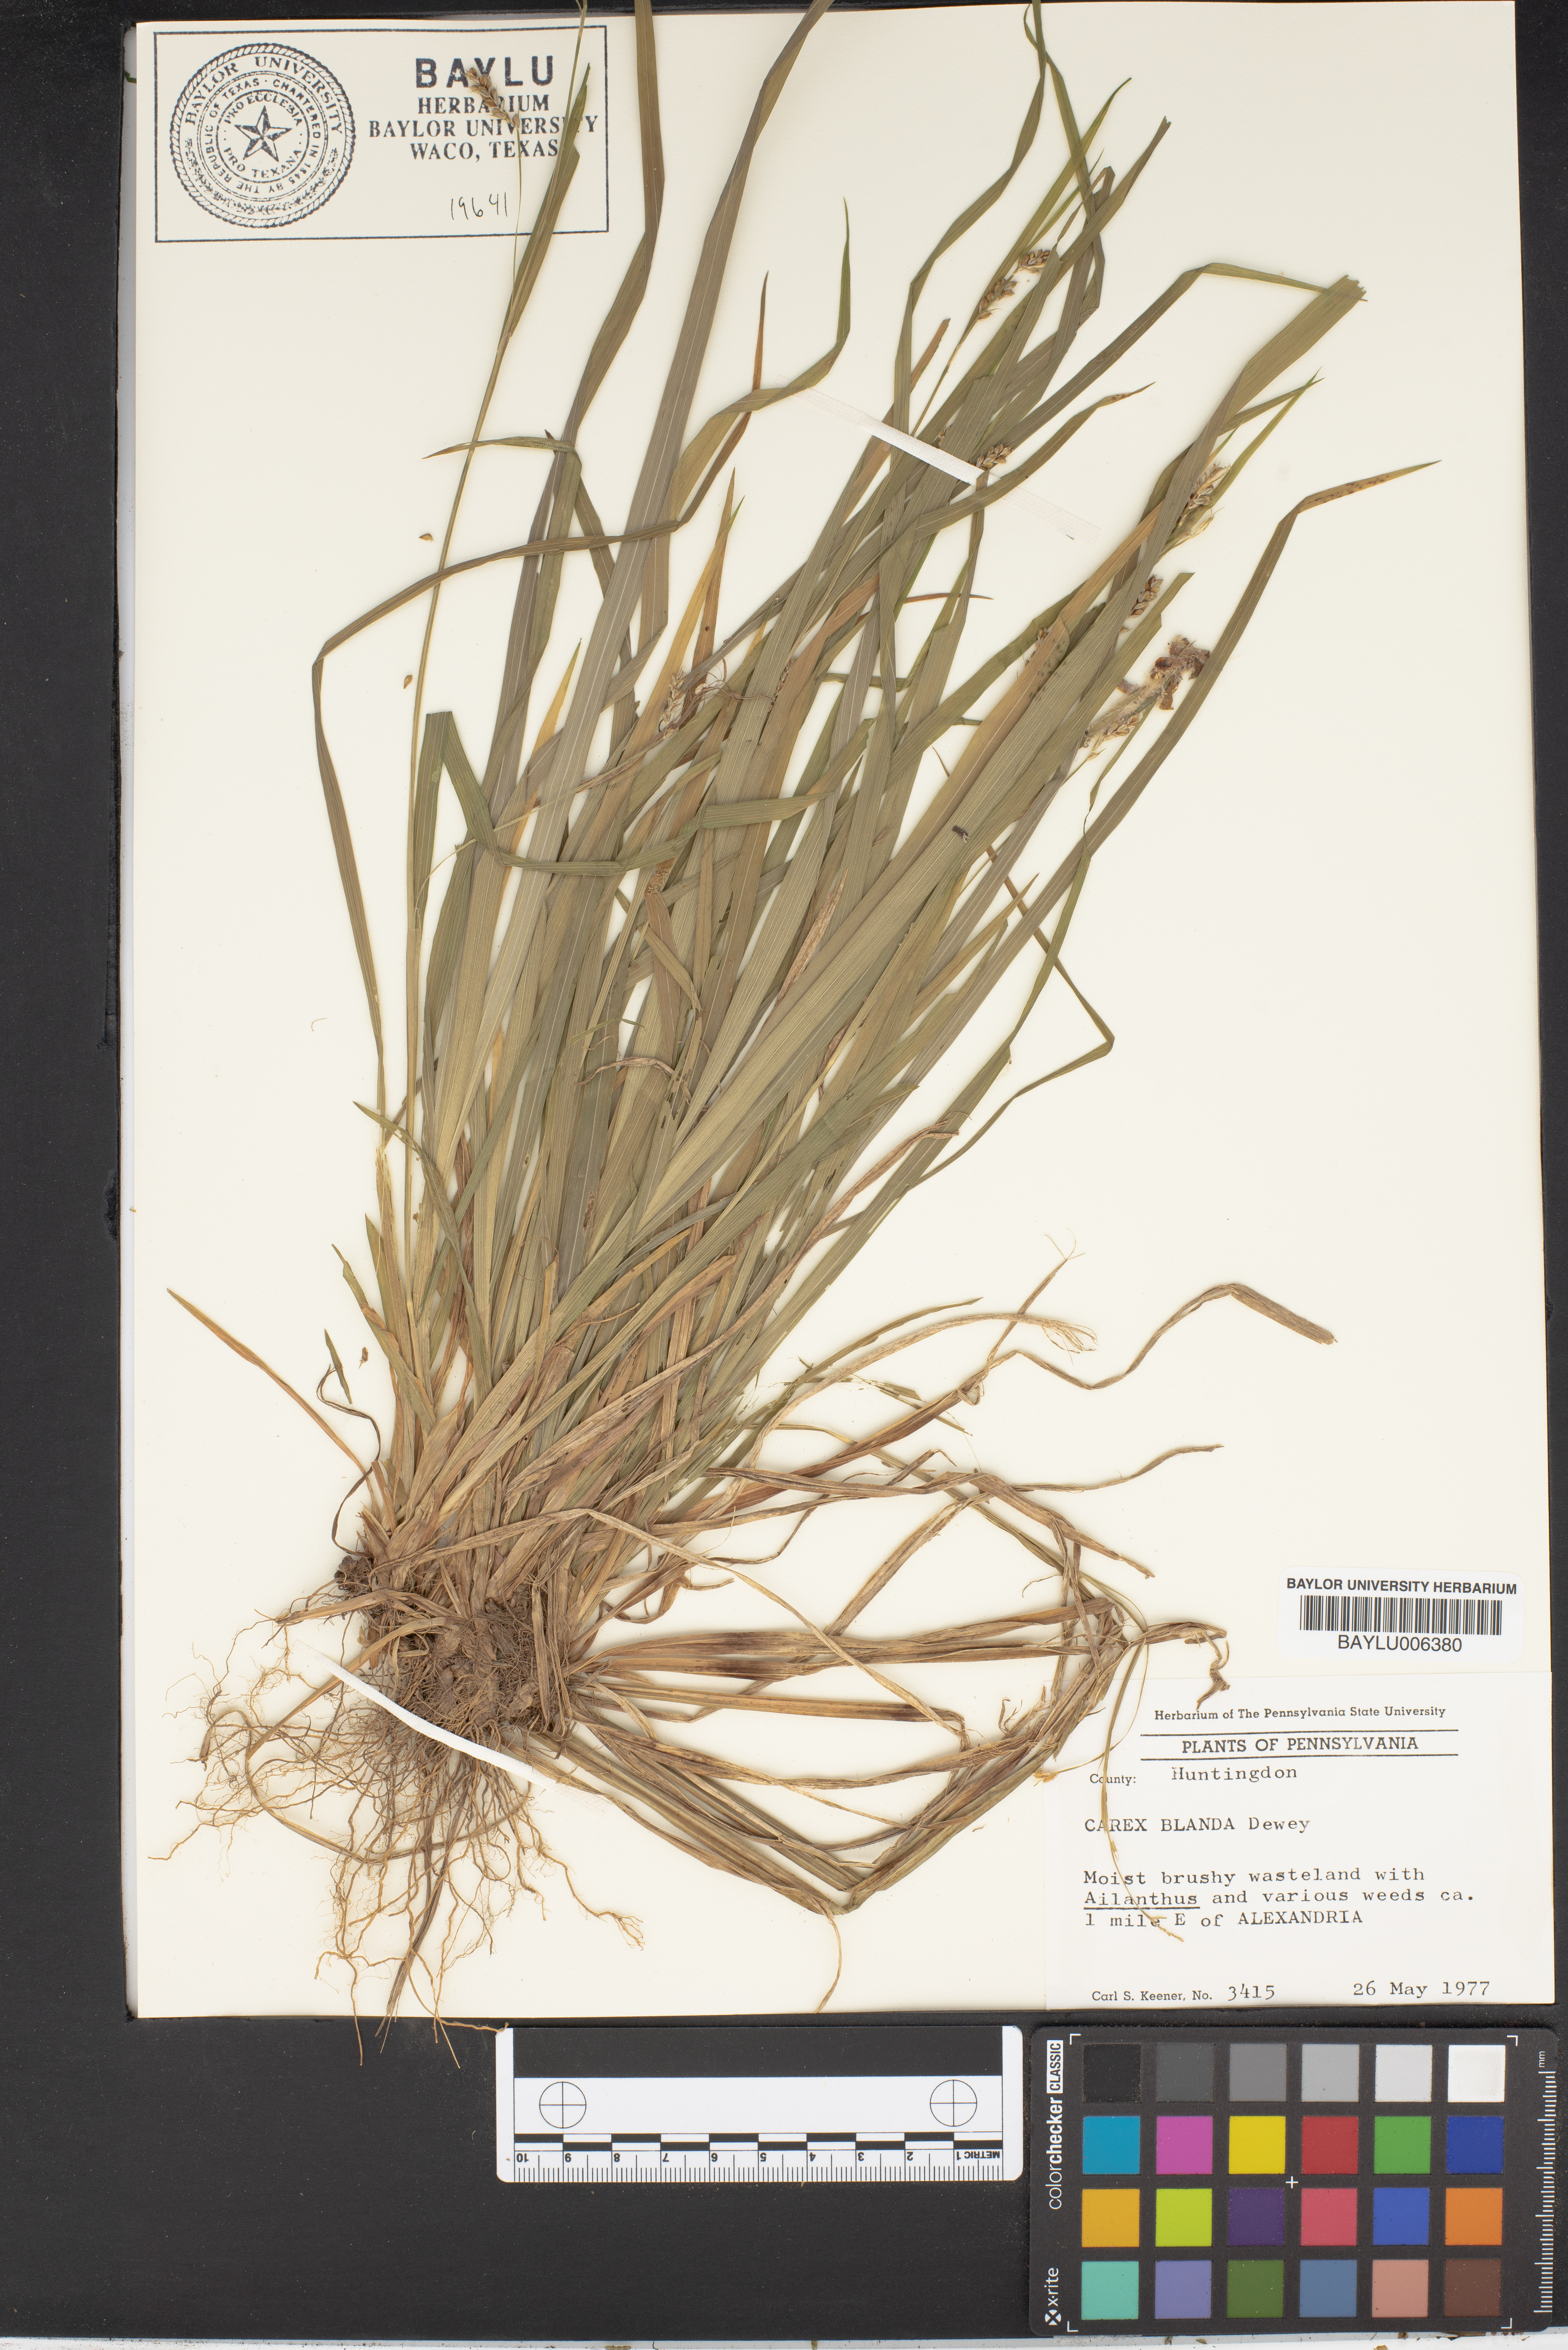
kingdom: Plantae
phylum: Tracheophyta
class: Liliopsida
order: Poales
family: Cyperaceae
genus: Carex
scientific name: Carex blanda
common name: Bland sedge
